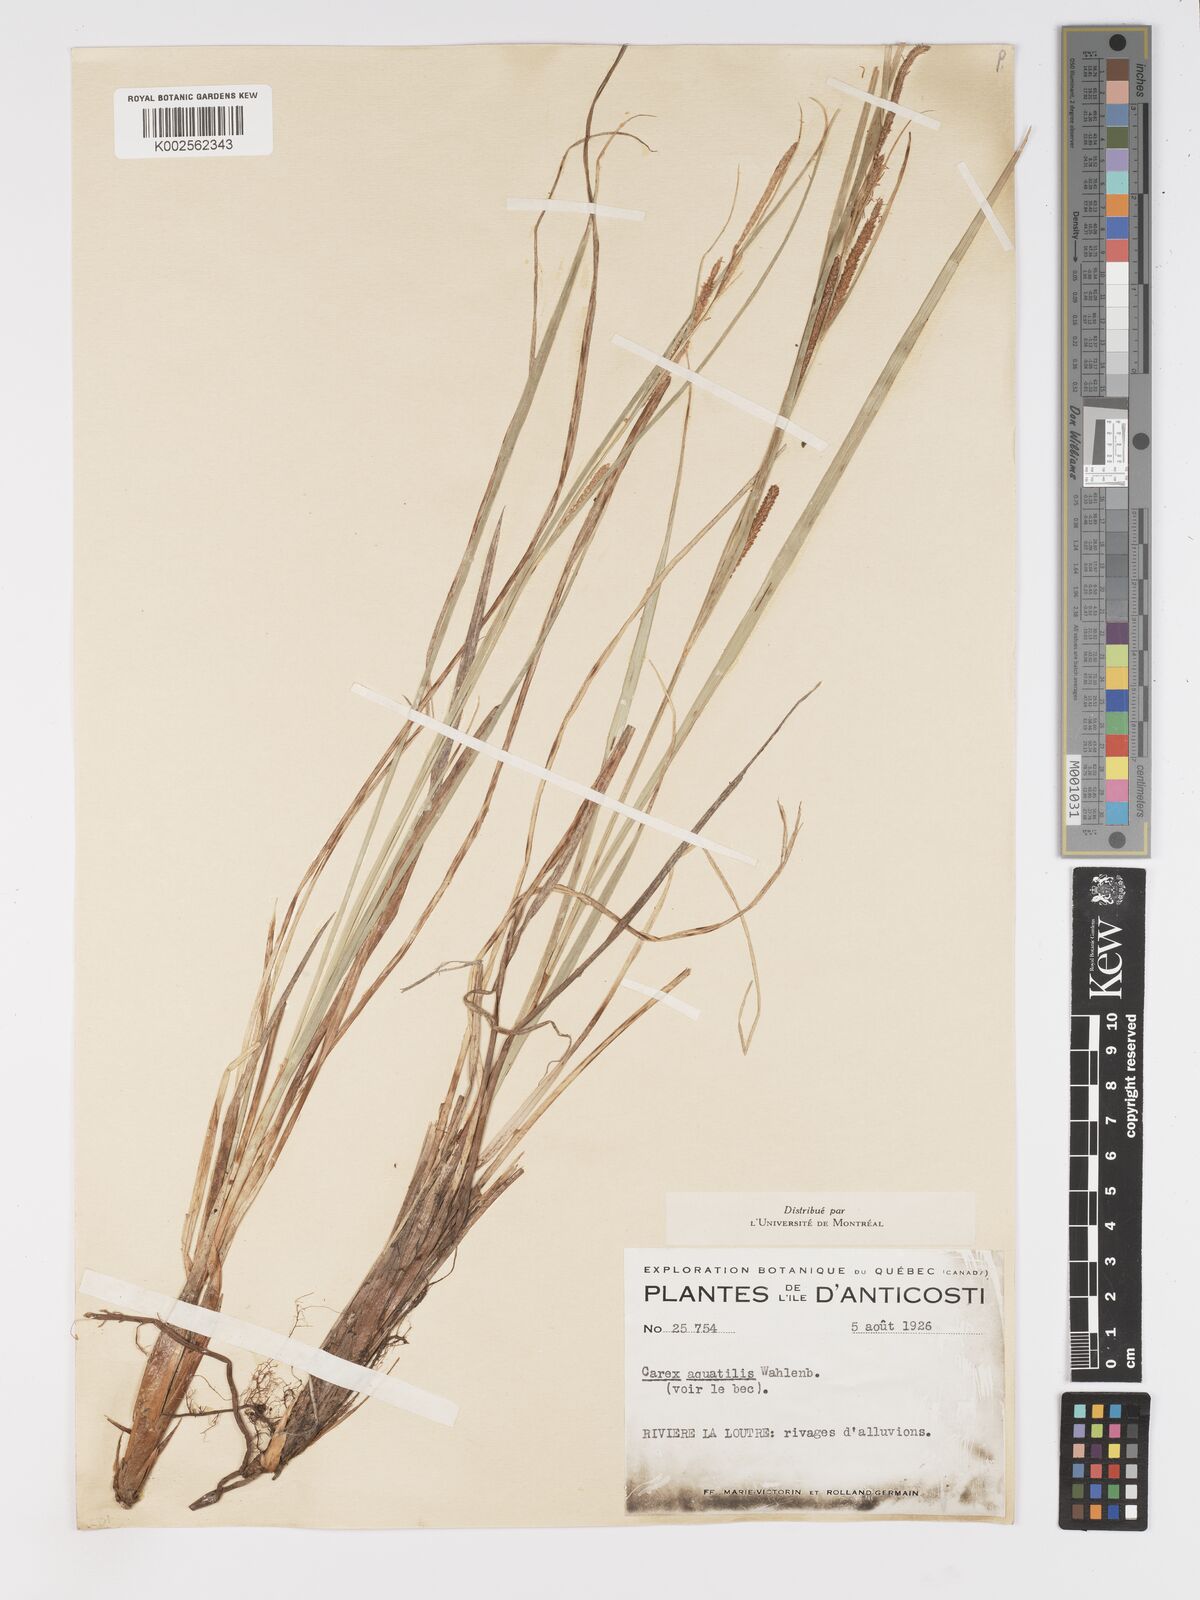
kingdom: Plantae
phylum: Tracheophyta
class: Liliopsida
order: Poales
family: Cyperaceae
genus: Carex
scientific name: Carex aquatilis
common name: Water sedge
